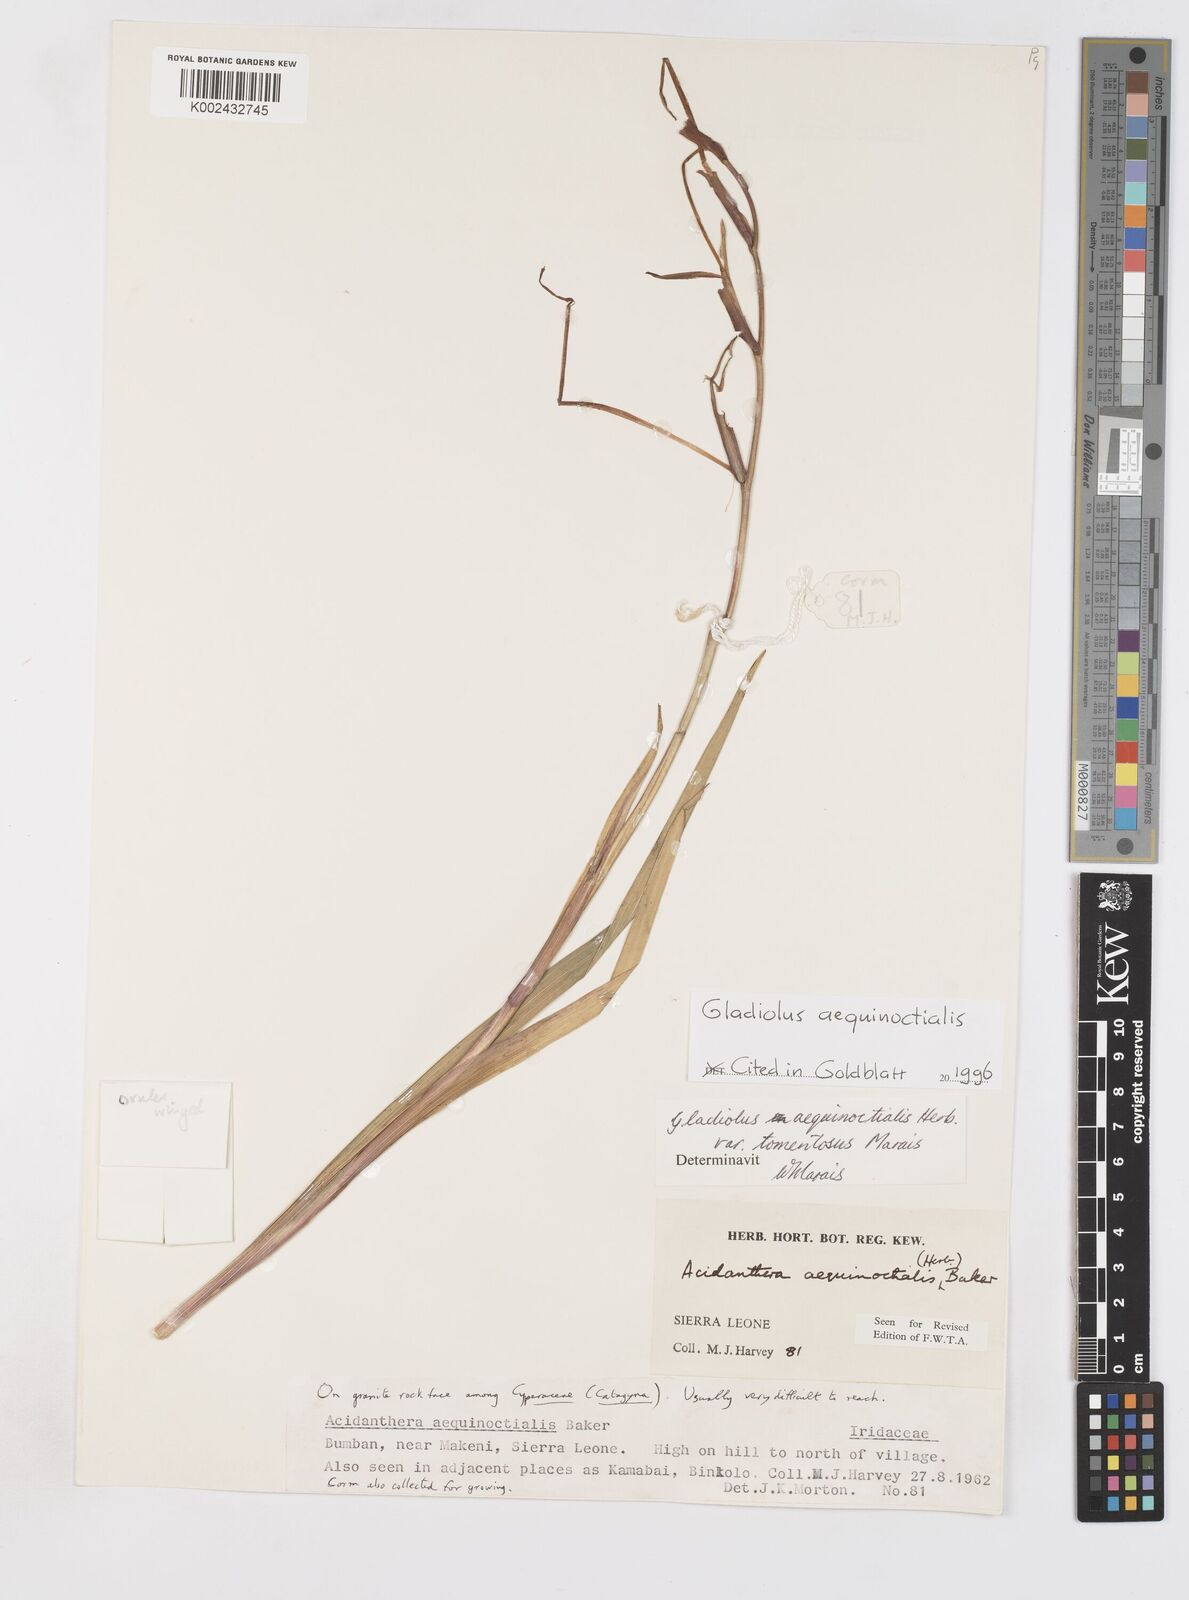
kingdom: Plantae
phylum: Tracheophyta
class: Liliopsida
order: Asparagales
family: Iridaceae
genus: Gladiolus
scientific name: Gladiolus aequinoctialis
